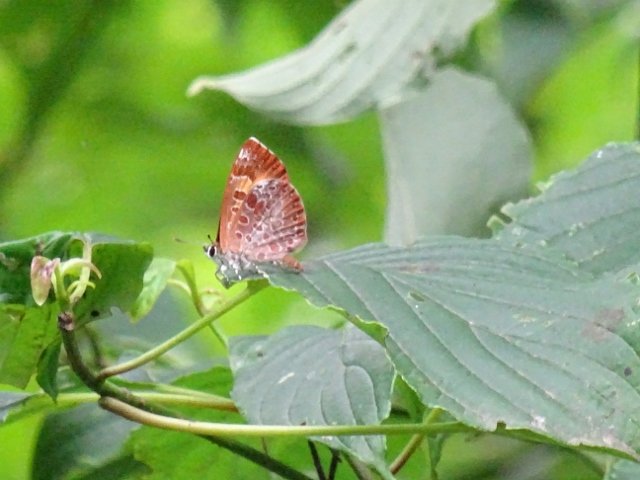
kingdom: Animalia
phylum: Arthropoda
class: Insecta
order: Lepidoptera
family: Lycaenidae
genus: Feniseca
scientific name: Feniseca tarquinius
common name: Harvester
